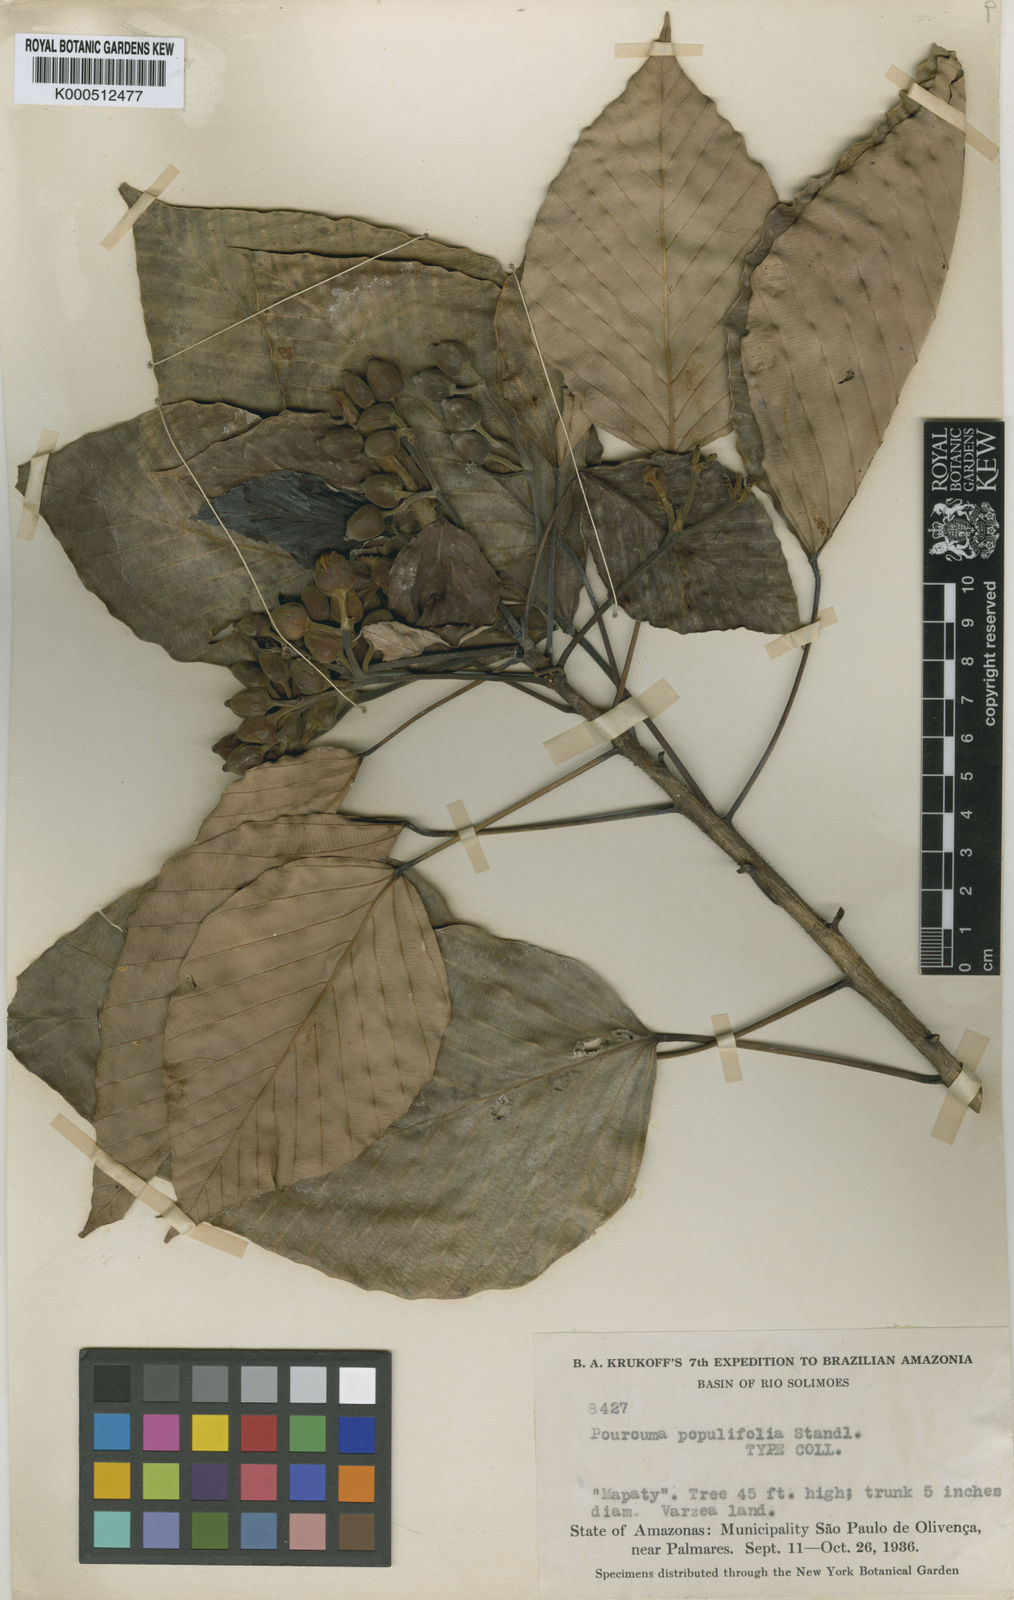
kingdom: Plantae
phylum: Tracheophyta
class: Magnoliopsida
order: Rosales
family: Urticaceae
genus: Pourouma
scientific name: Pourouma acuminata
